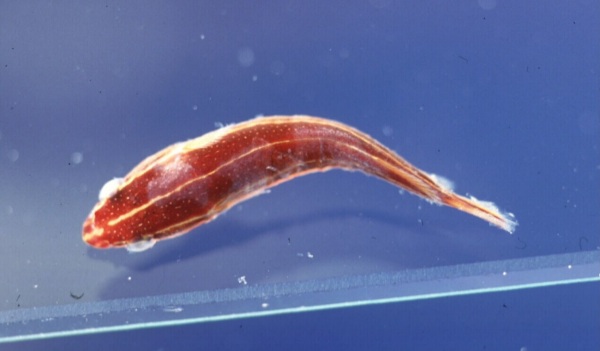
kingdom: Animalia
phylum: Chordata
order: Gobiesociformes
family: Gobiesocidae
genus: Lepadichthys
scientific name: Lepadichthys
